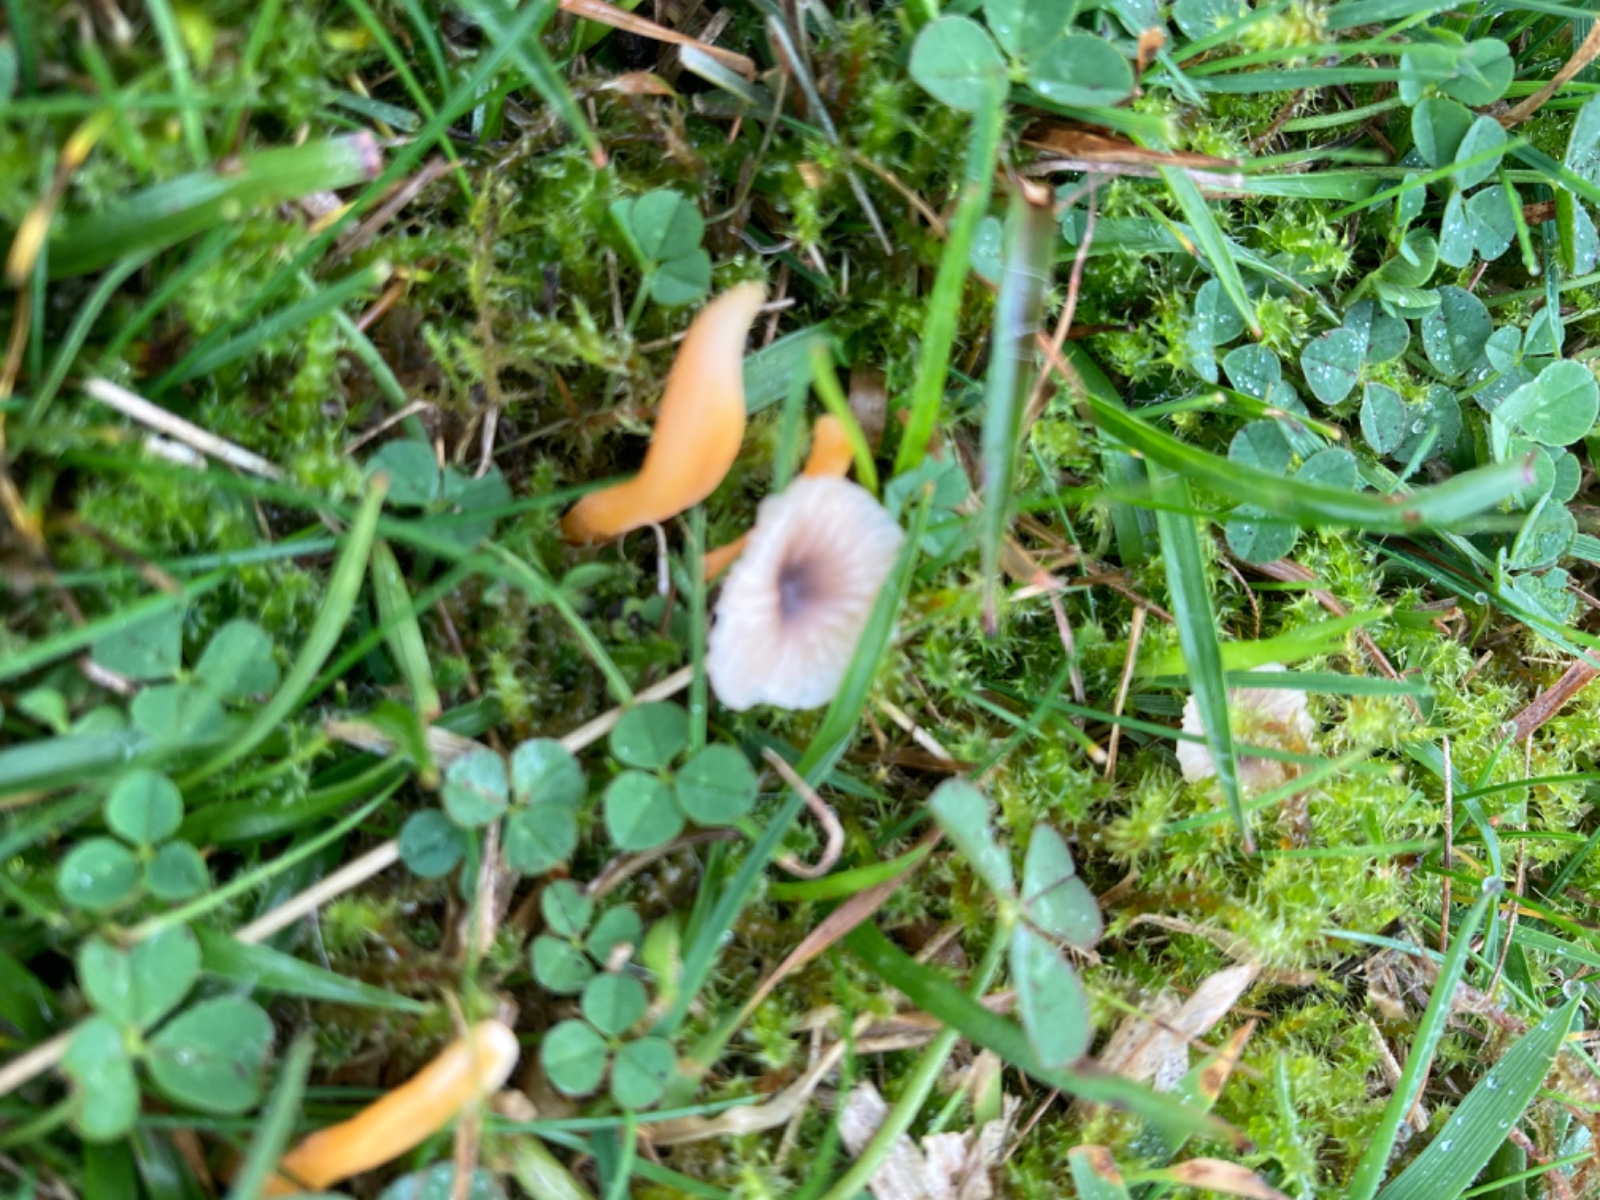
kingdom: Fungi
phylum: Basidiomycota
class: Agaricomycetes
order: Agaricales
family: Clavariaceae
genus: Clavulinopsis
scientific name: Clavulinopsis luteoalba
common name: abrikos-køllesvamp
